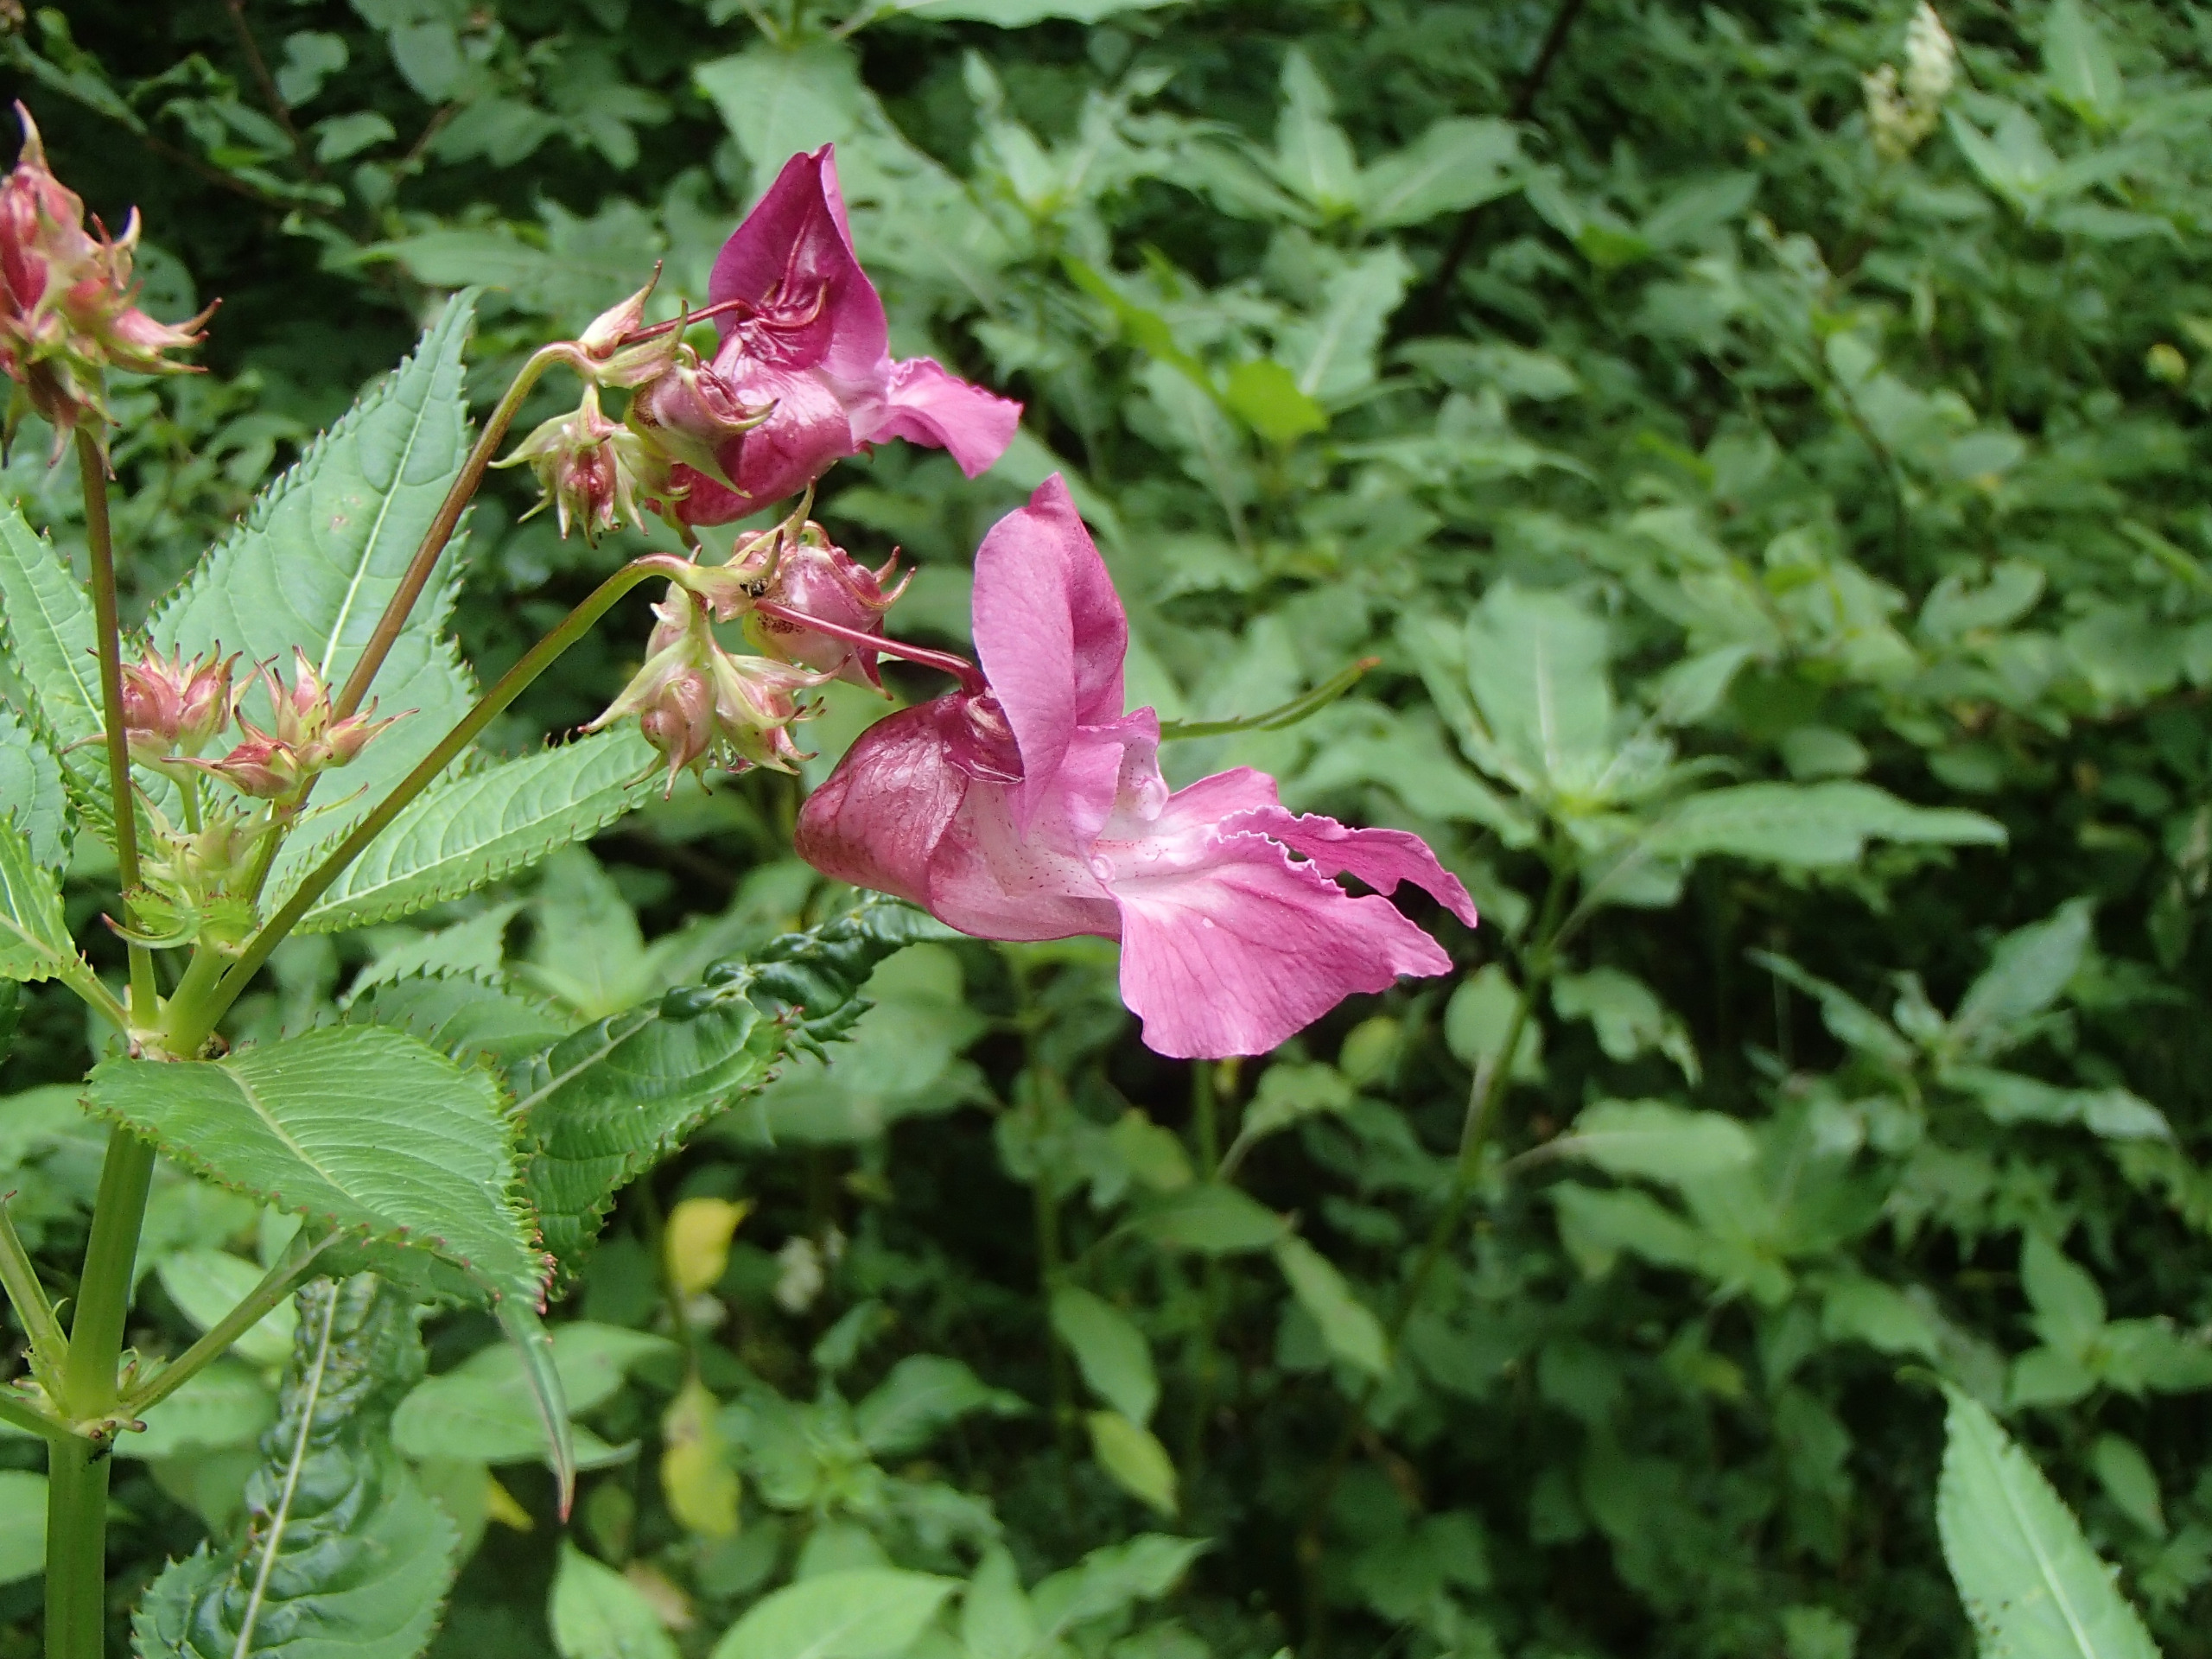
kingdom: Plantae
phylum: Tracheophyta
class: Magnoliopsida
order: Ericales
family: Balsaminaceae
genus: Impatiens
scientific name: Impatiens glandulifera
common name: Kæmpe-balsamin
